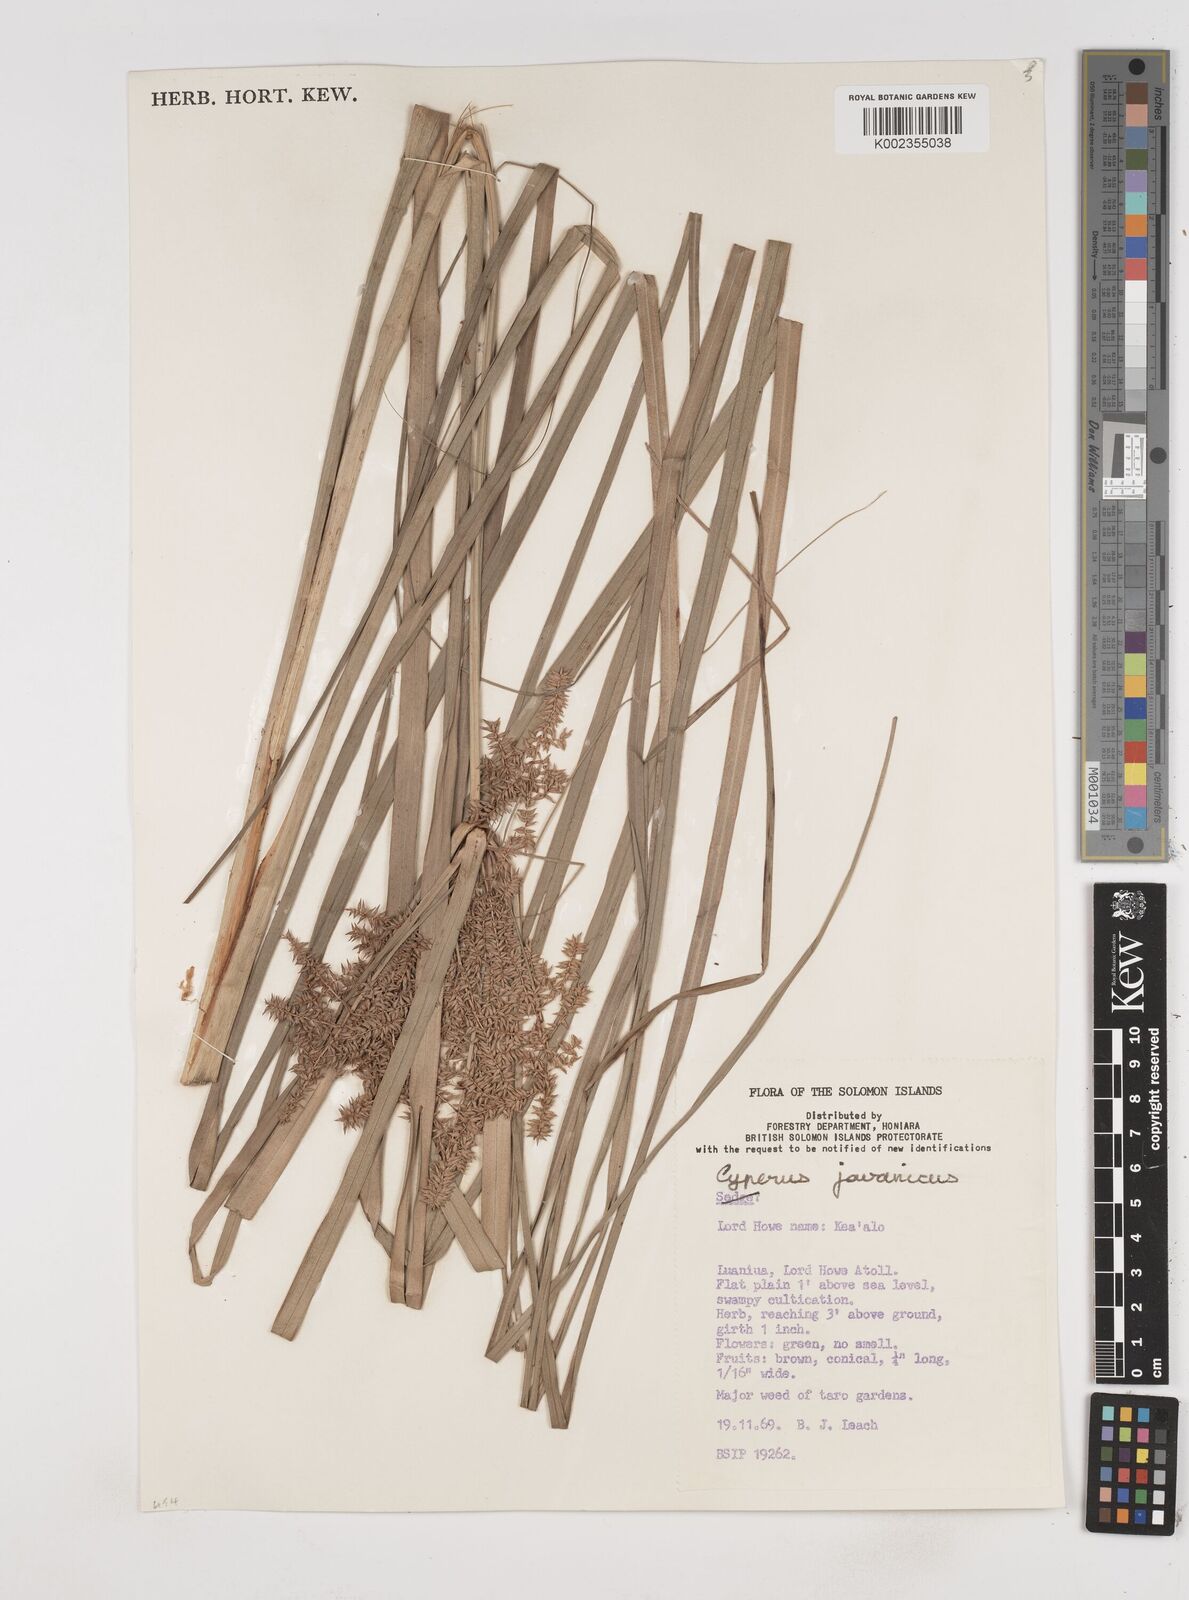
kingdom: Plantae
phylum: Tracheophyta
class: Liliopsida
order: Poales
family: Cyperaceae
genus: Cyperus
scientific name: Cyperus javanicus
